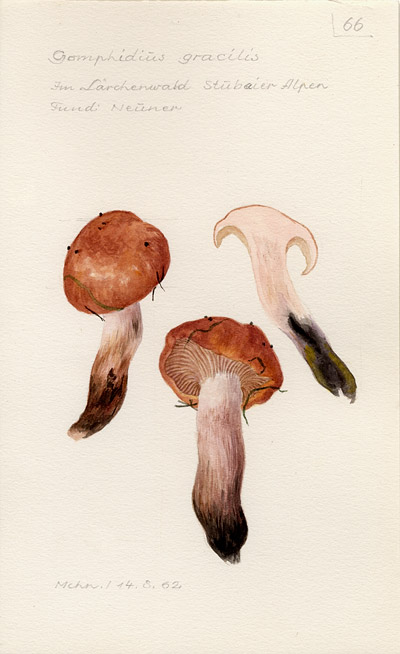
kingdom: Fungi
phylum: Basidiomycota
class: Agaricomycetes
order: Boletales
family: Gomphidiaceae
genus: Gomphidius
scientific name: Gomphidius maculatus
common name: Larch spike
